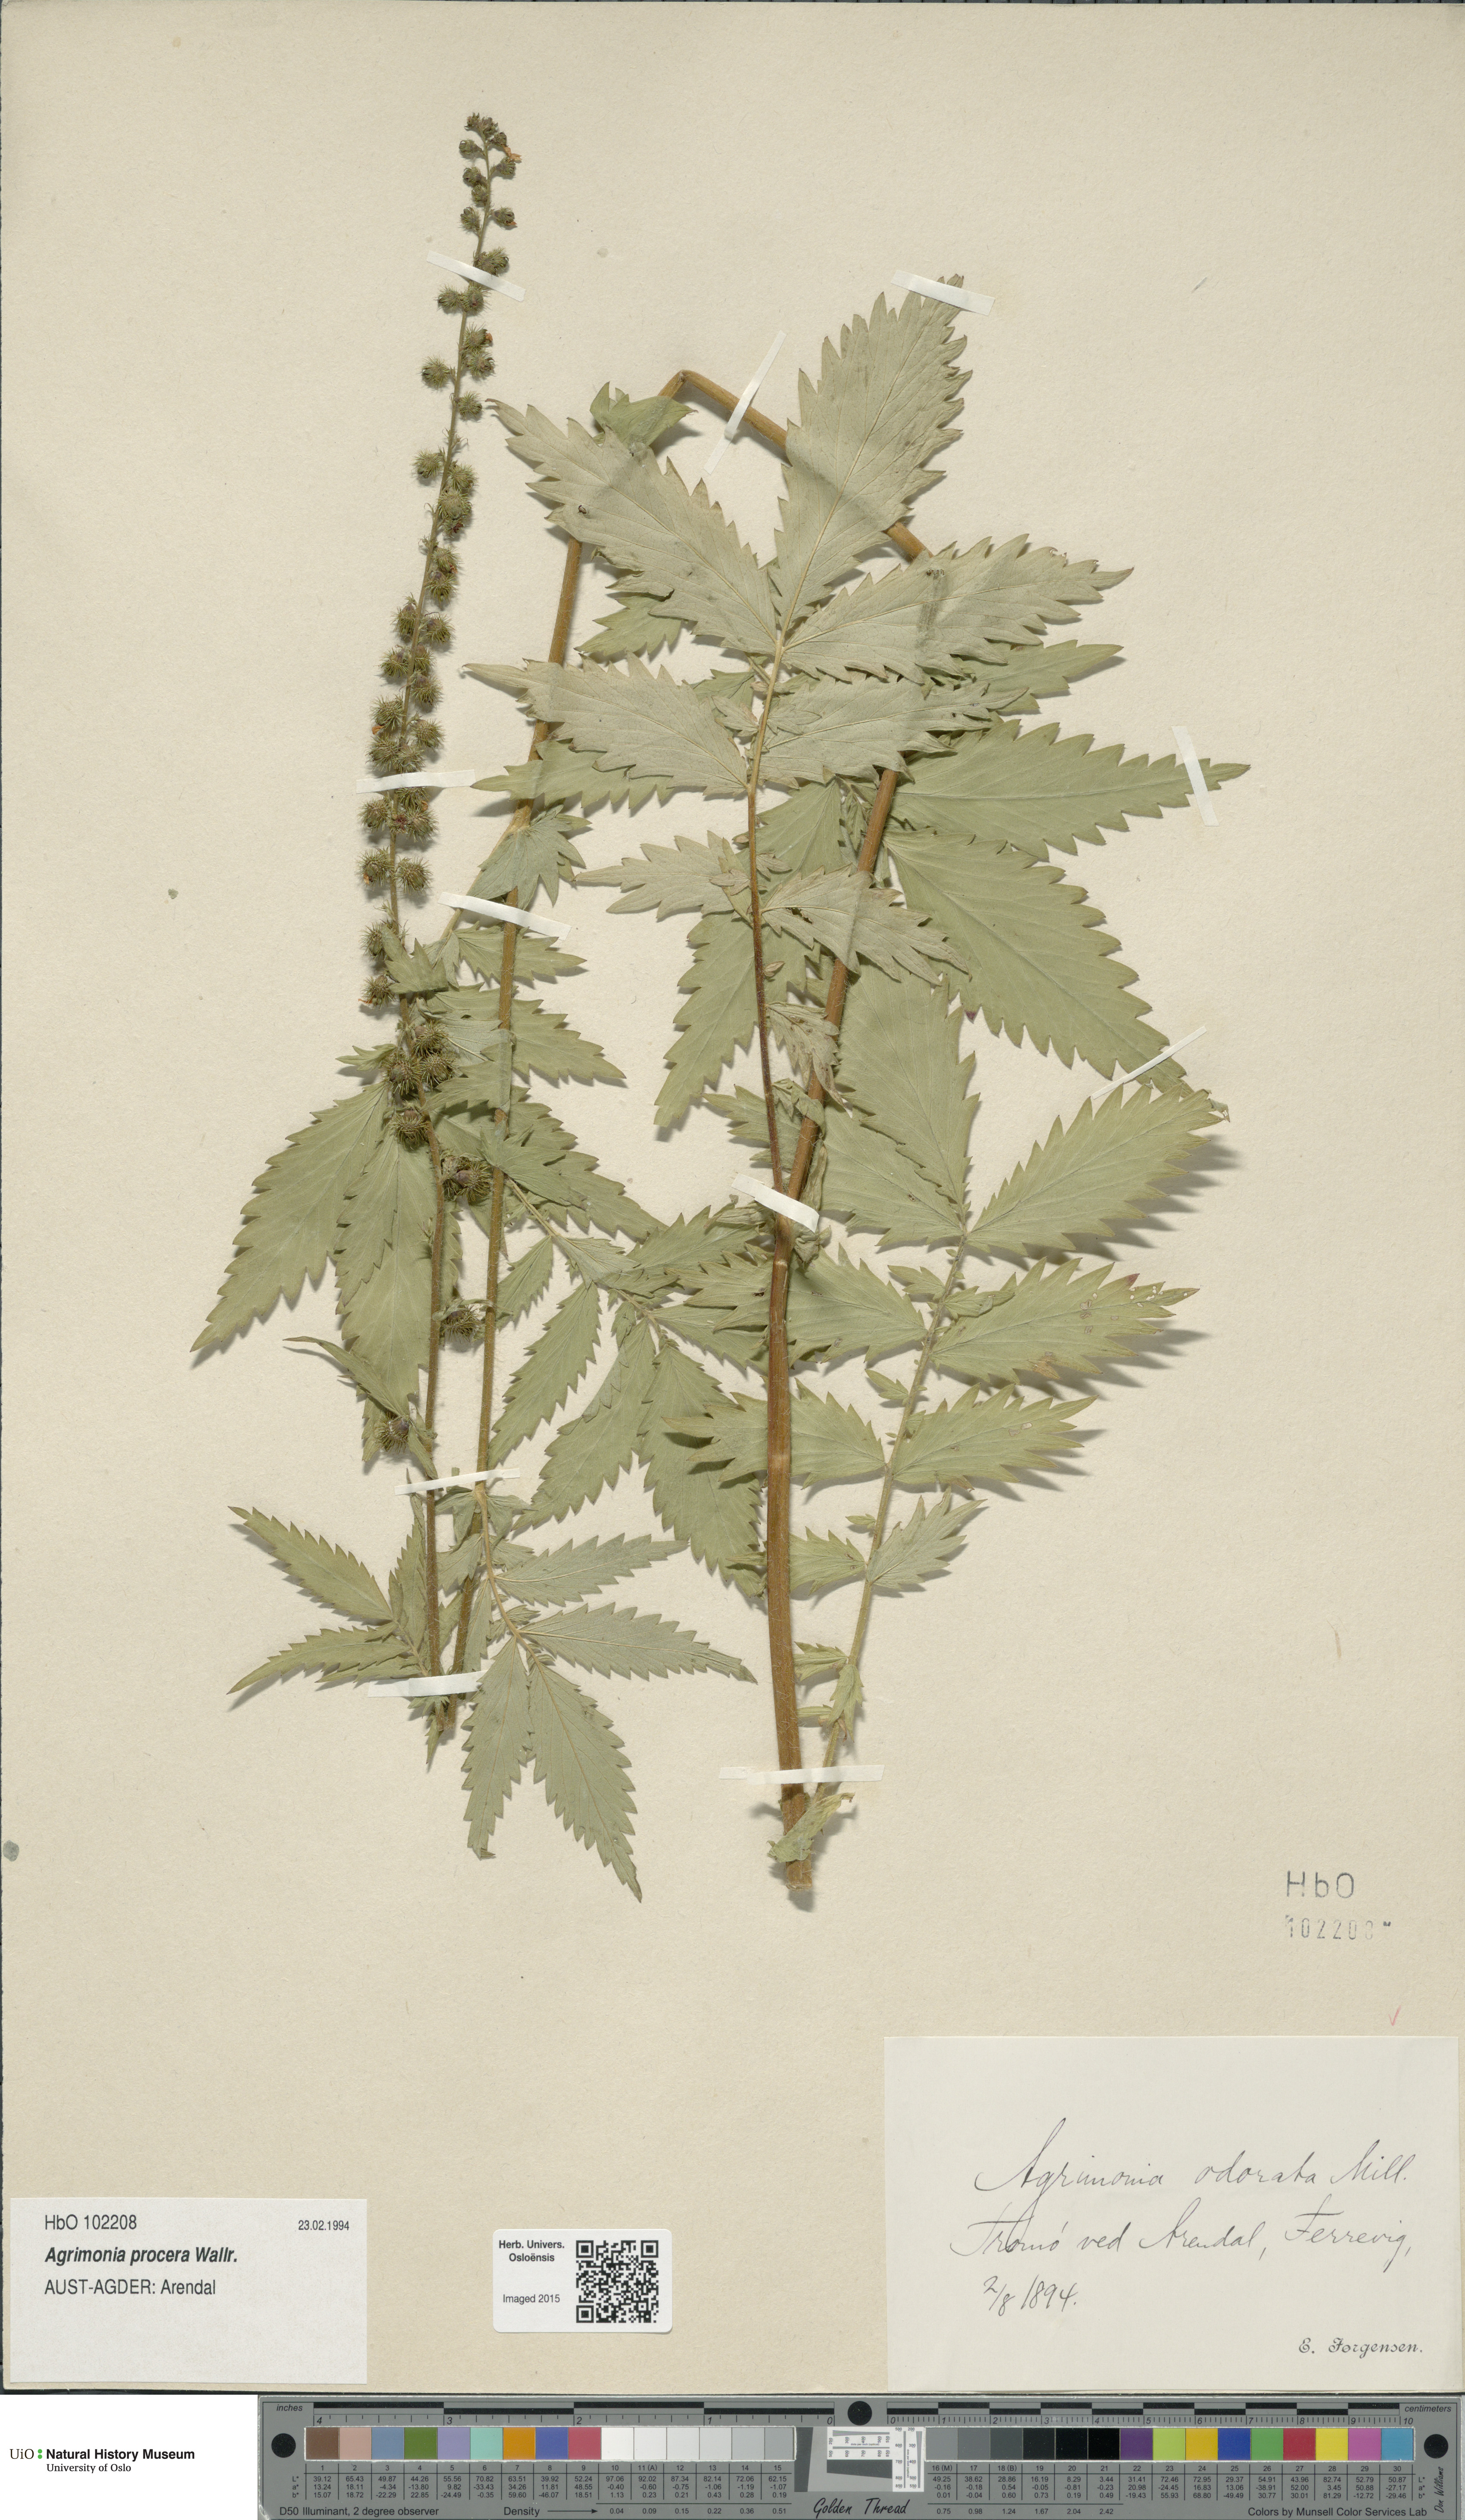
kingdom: Plantae
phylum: Tracheophyta
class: Magnoliopsida
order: Rosales
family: Rosaceae
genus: Agrimonia
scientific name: Agrimonia procera
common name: Fragrant agrimony
